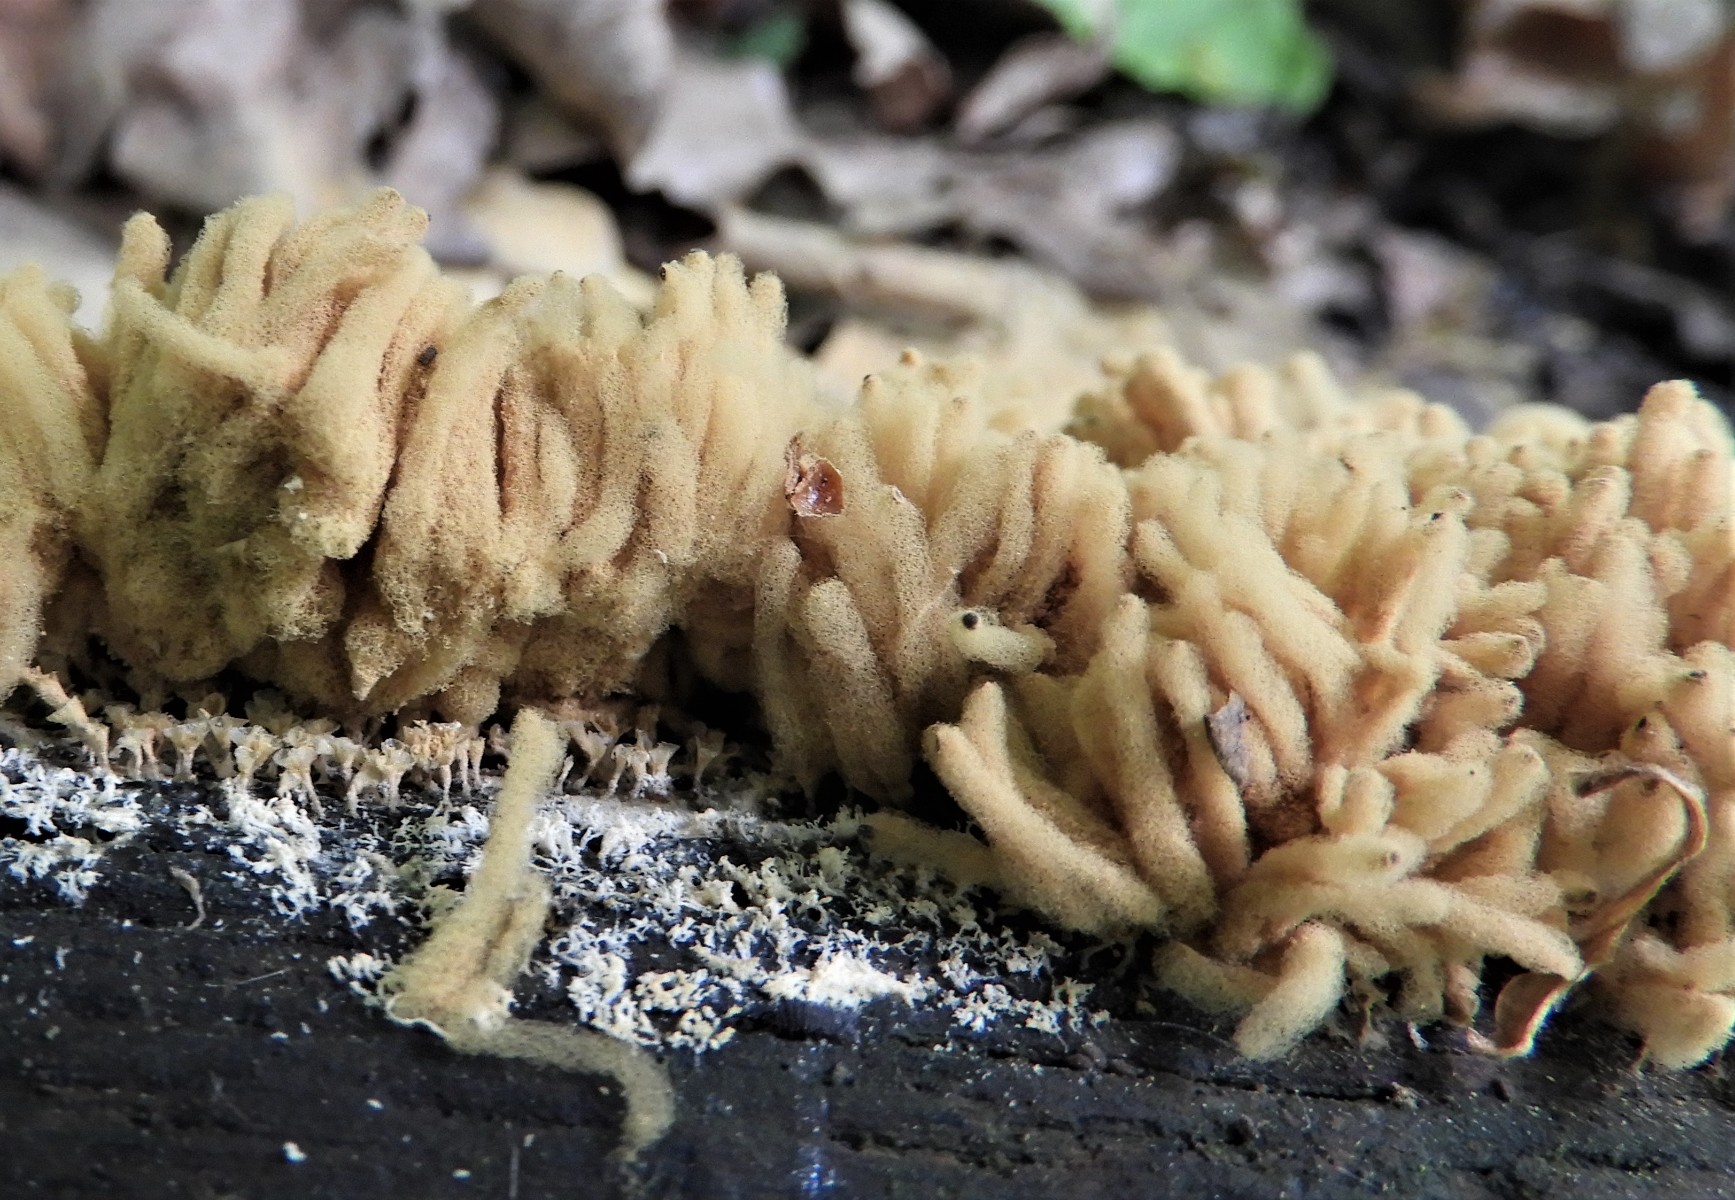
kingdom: Protozoa
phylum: Mycetozoa
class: Myxomycetes
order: Trichiales
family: Arcyriaceae
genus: Arcyria
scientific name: Arcyria obvelata
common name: okkergul skålsvøb
